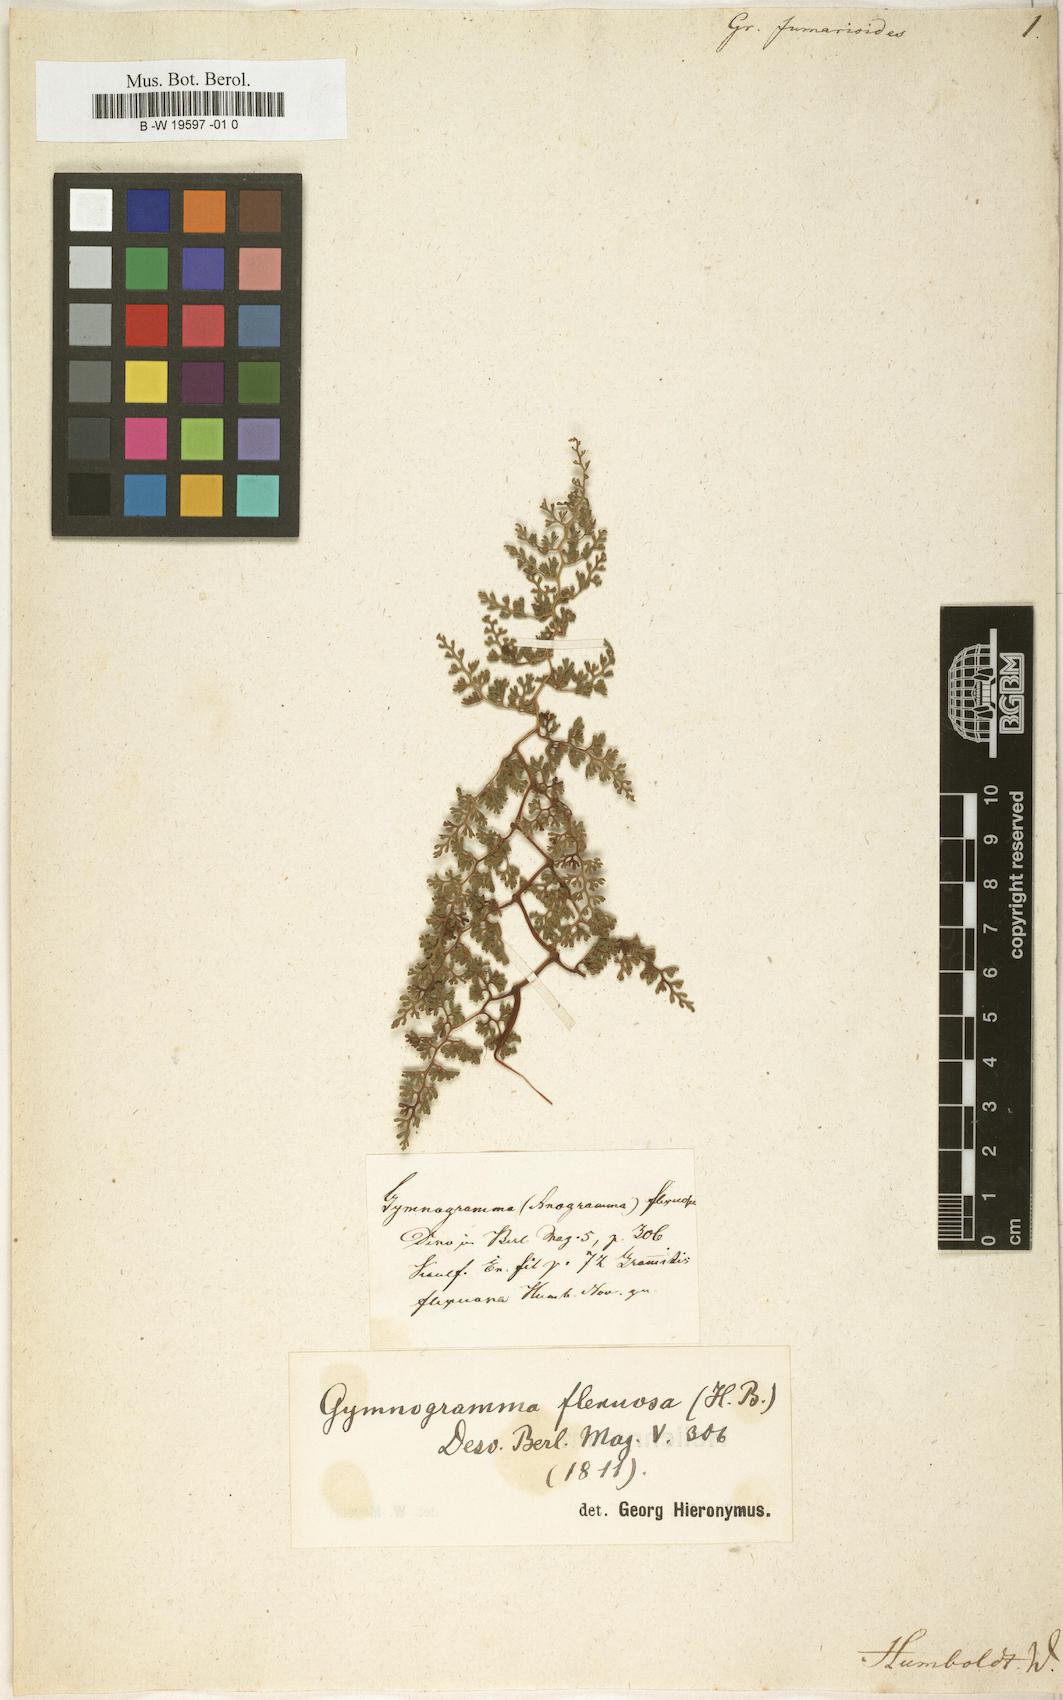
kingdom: Plantae
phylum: Tracheophyta
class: Polypodiopsida
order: Polypodiales
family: Polypodiaceae
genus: Grammitis
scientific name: Grammitis
